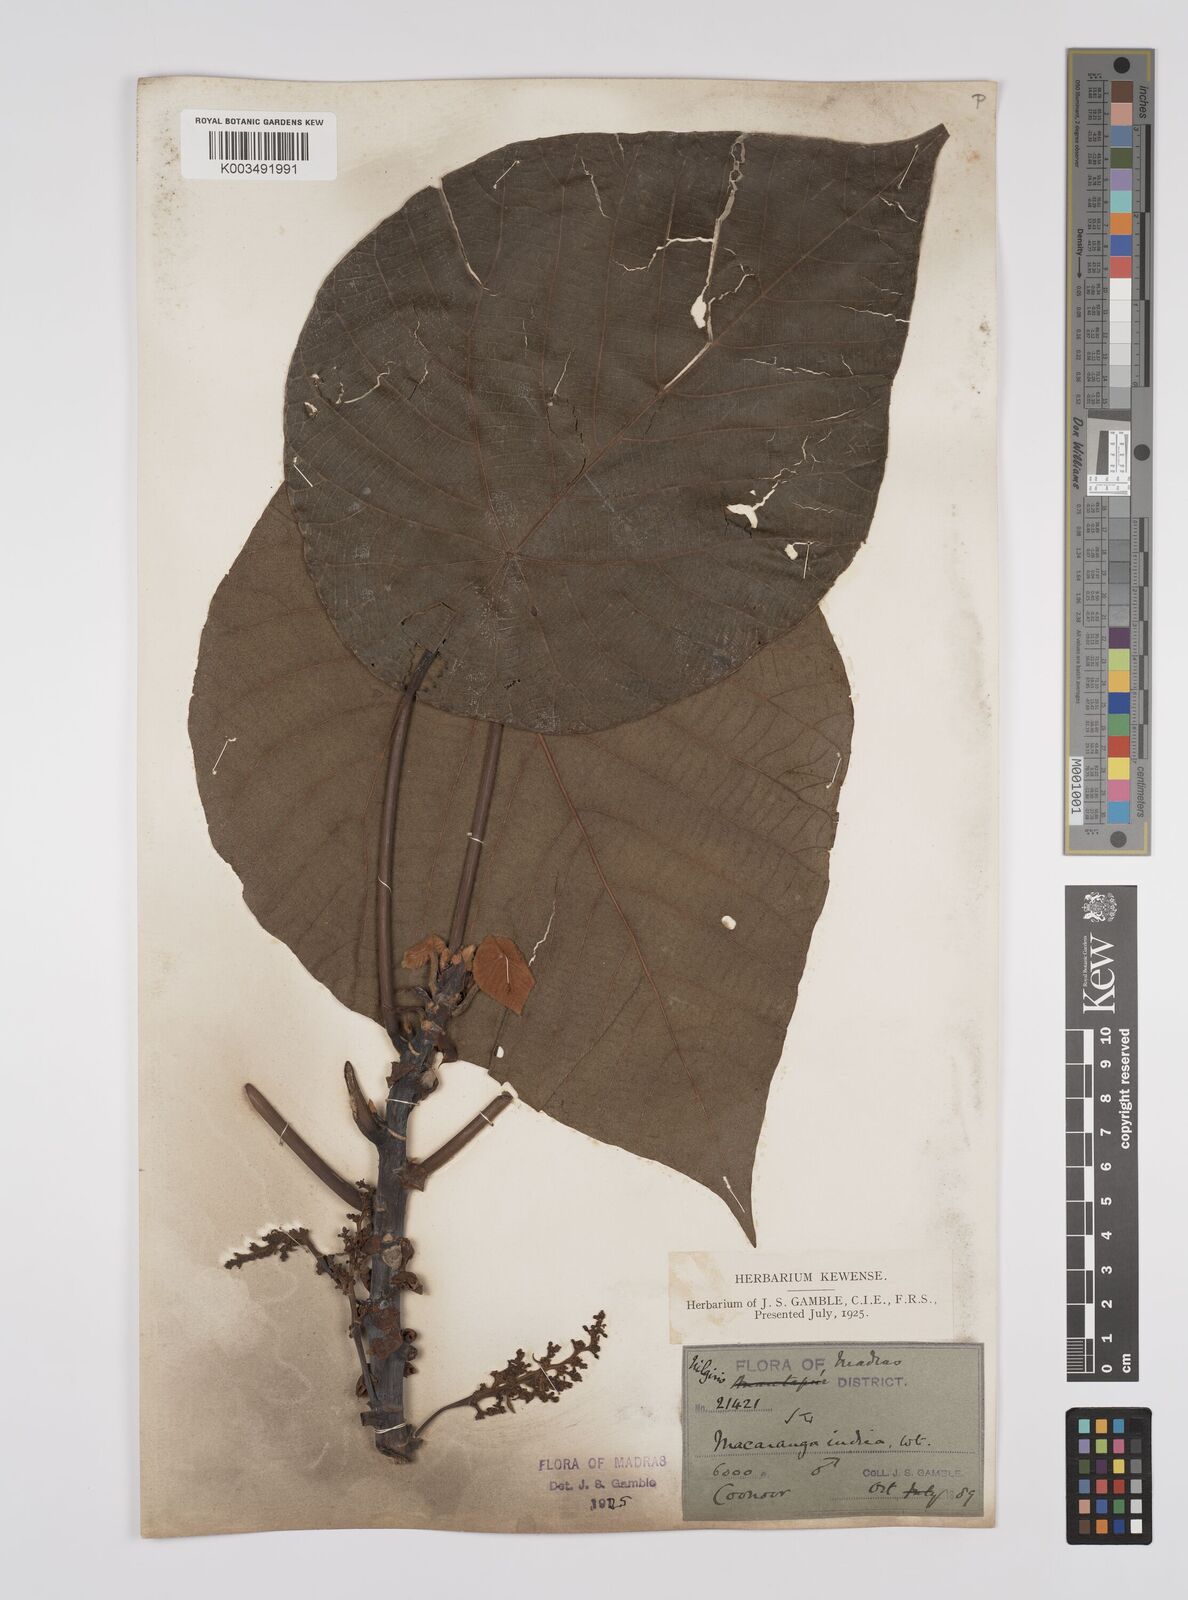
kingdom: Plantae
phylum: Tracheophyta
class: Magnoliopsida
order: Malpighiales
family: Euphorbiaceae
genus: Macaranga
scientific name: Macaranga indica
